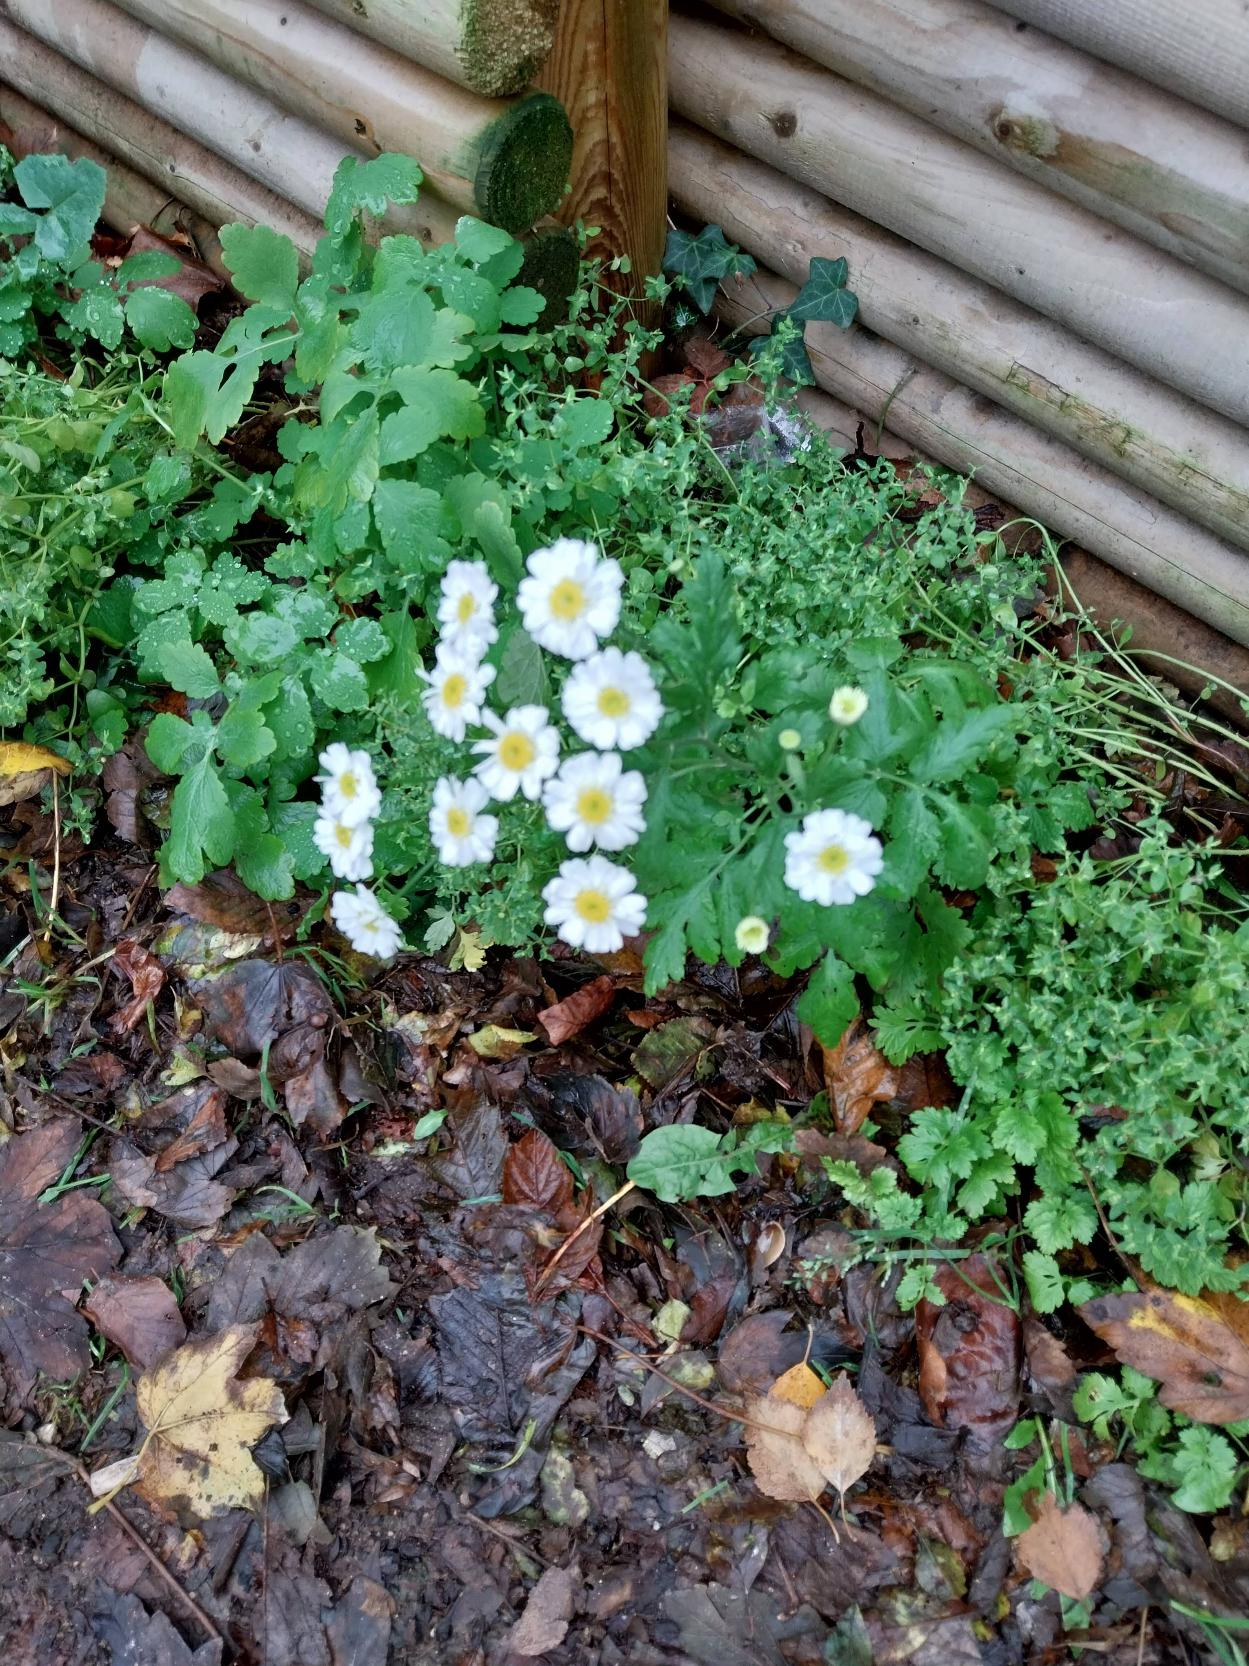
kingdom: Plantae
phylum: Tracheophyta
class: Magnoliopsida
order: Asterales
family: Asteraceae
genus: Tanacetum
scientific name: Tanacetum parthenium
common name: Matrem
